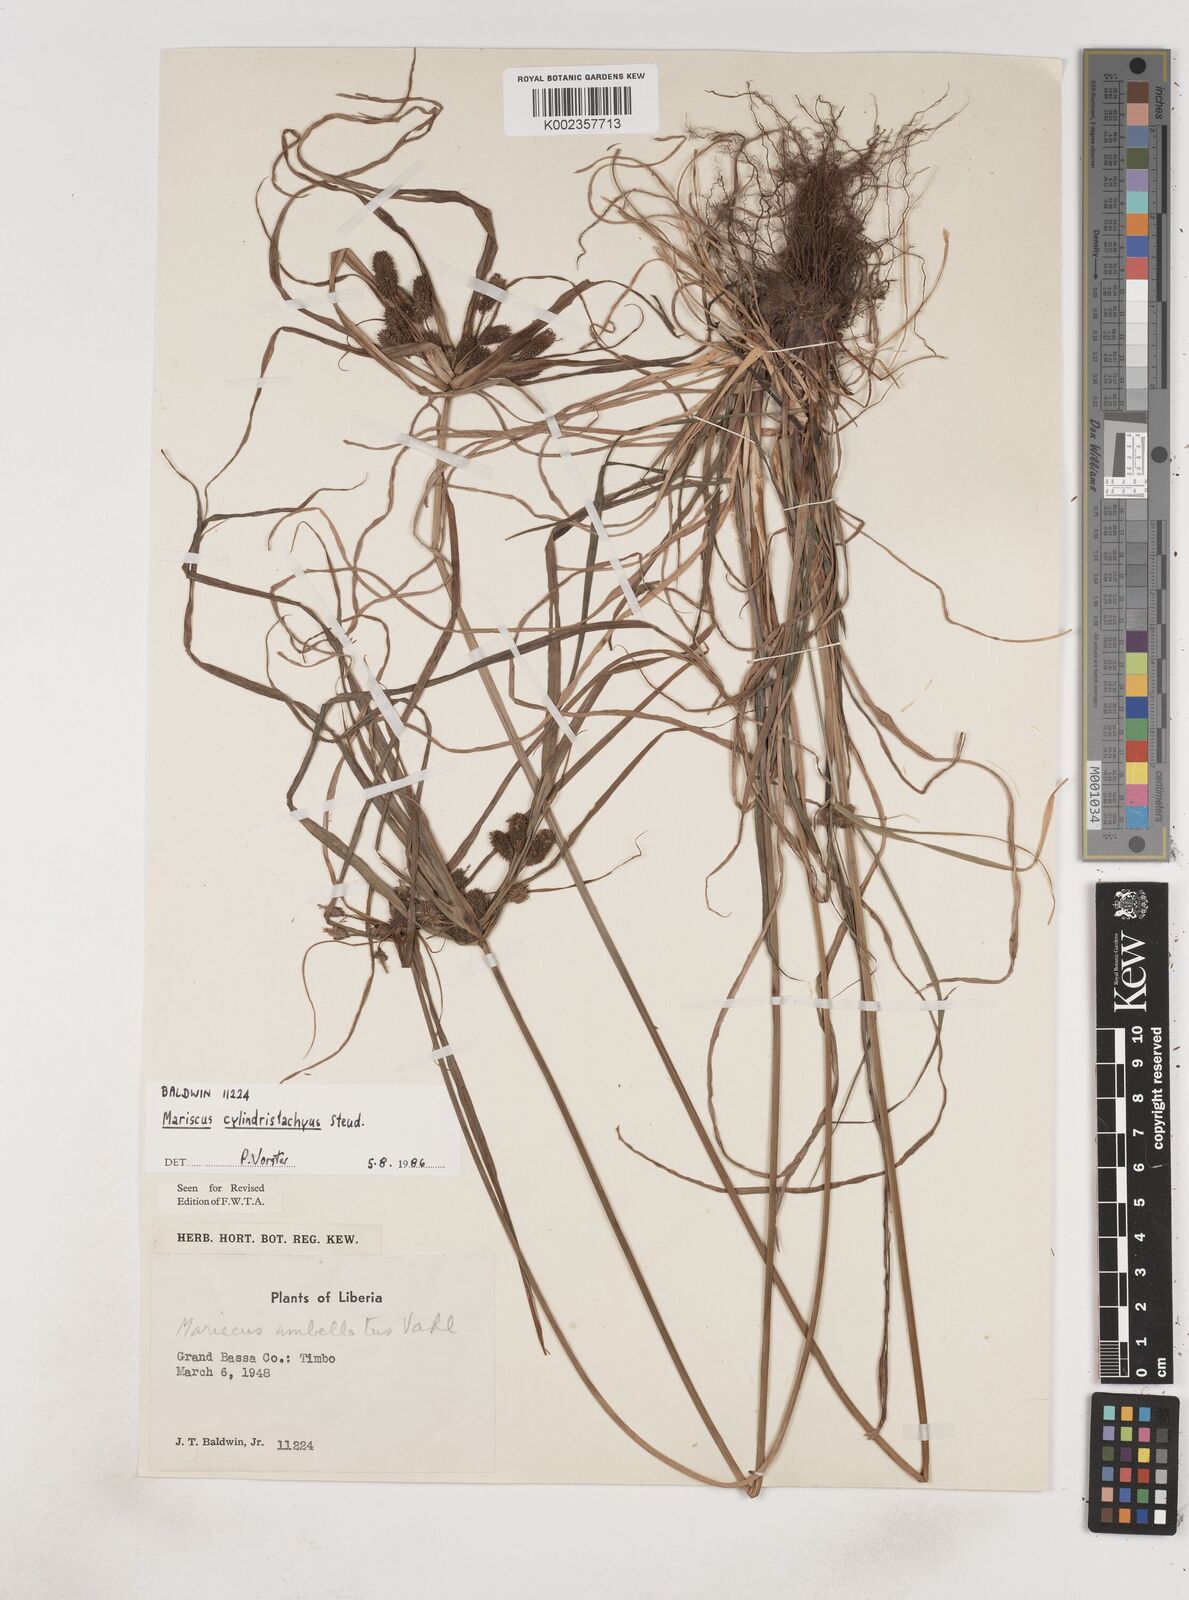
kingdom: Plantae
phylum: Tracheophyta
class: Liliopsida
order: Poales
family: Cyperaceae
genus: Cyperus
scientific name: Cyperus sublimis
